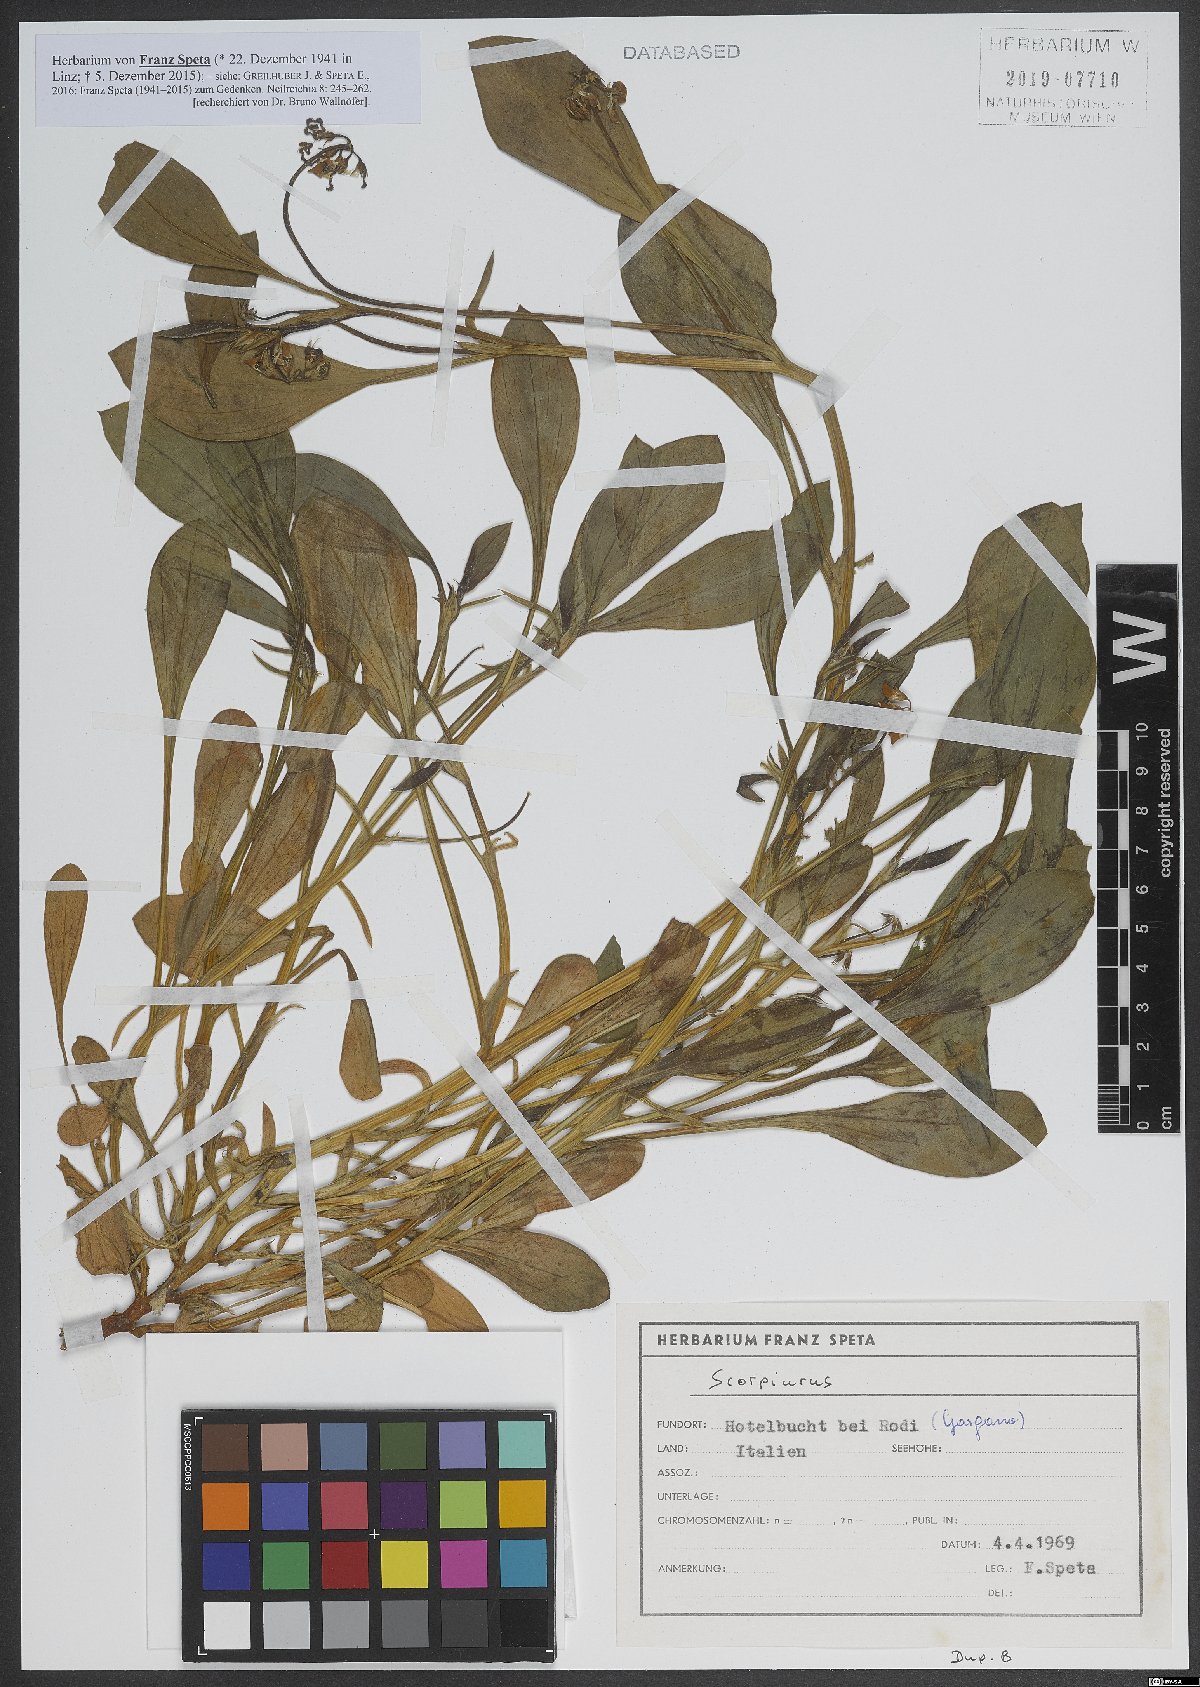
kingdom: Plantae
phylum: Tracheophyta
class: Magnoliopsida
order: Fabales
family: Fabaceae
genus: Scorpiurus
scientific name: Scorpiurus
